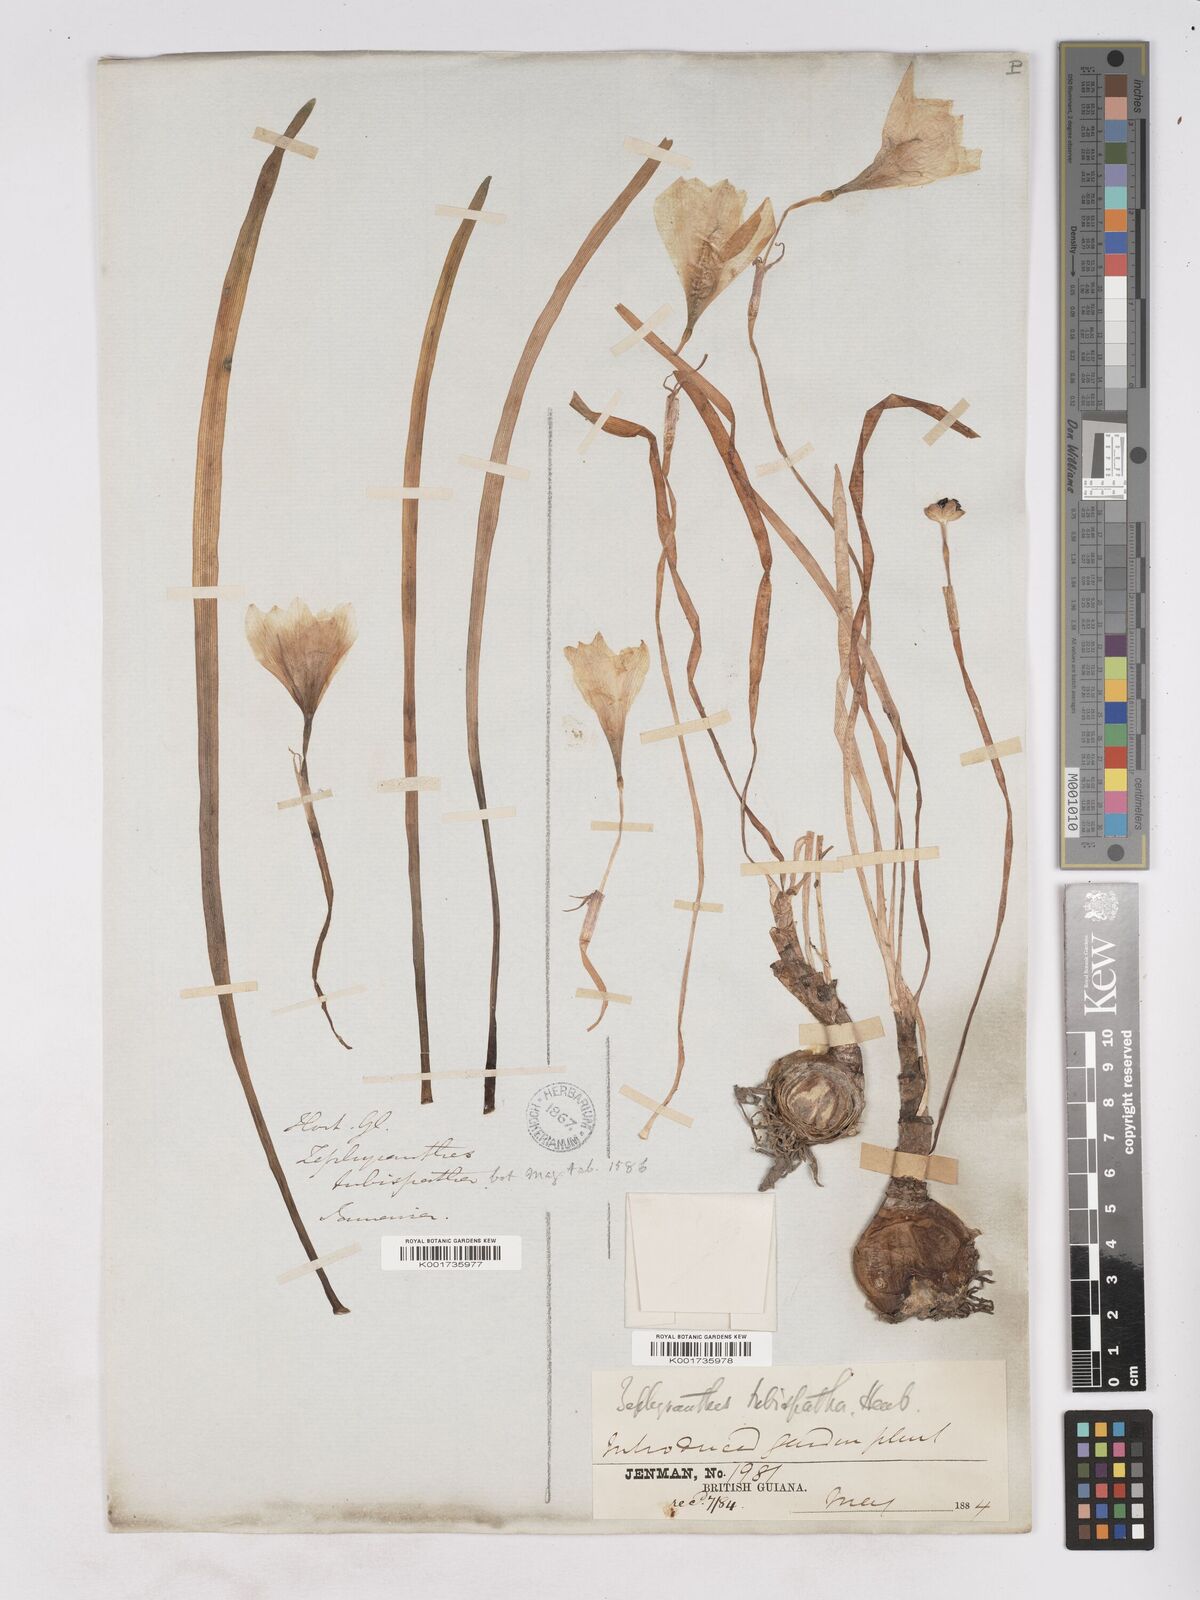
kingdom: Plantae
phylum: Tracheophyta
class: Liliopsida
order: Asparagales
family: Amaryllidaceae
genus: Zephyranthes
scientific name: Zephyranthes cearensis
